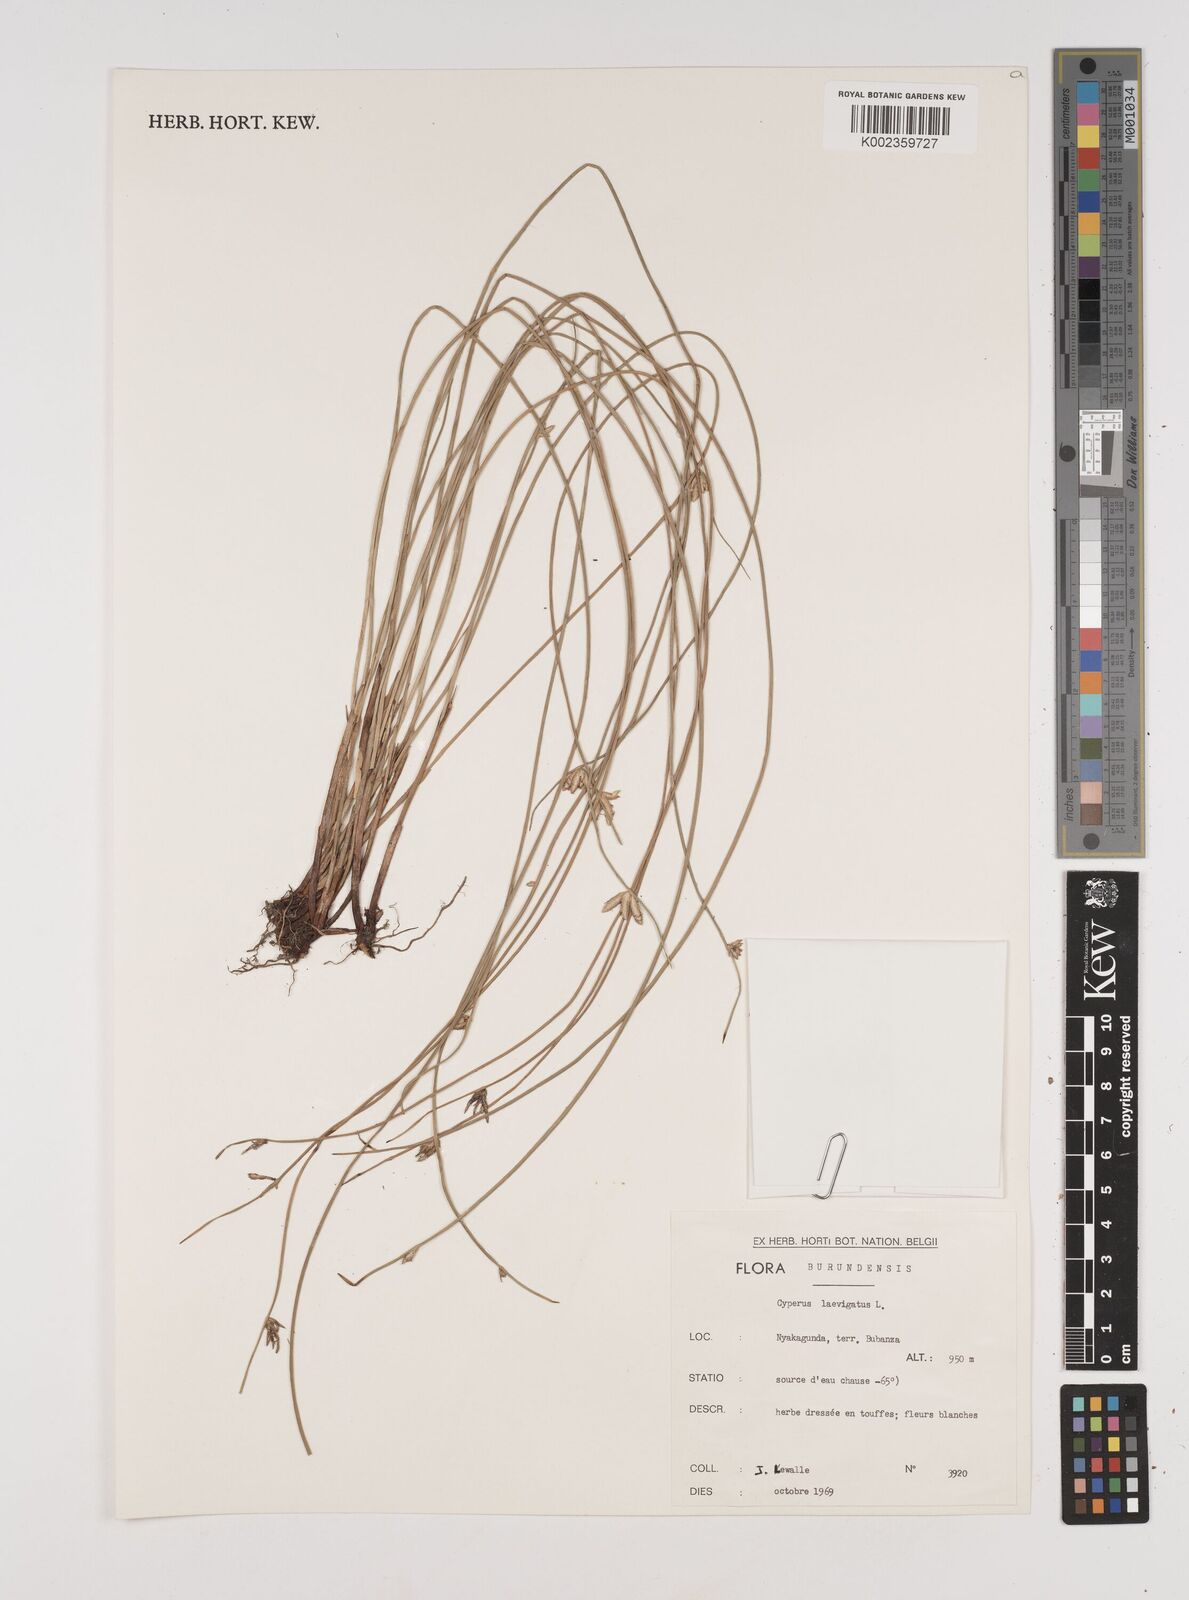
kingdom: Plantae
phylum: Tracheophyta
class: Liliopsida
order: Poales
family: Cyperaceae
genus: Cyperus
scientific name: Cyperus laevigatus
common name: Smooth flat sedge
